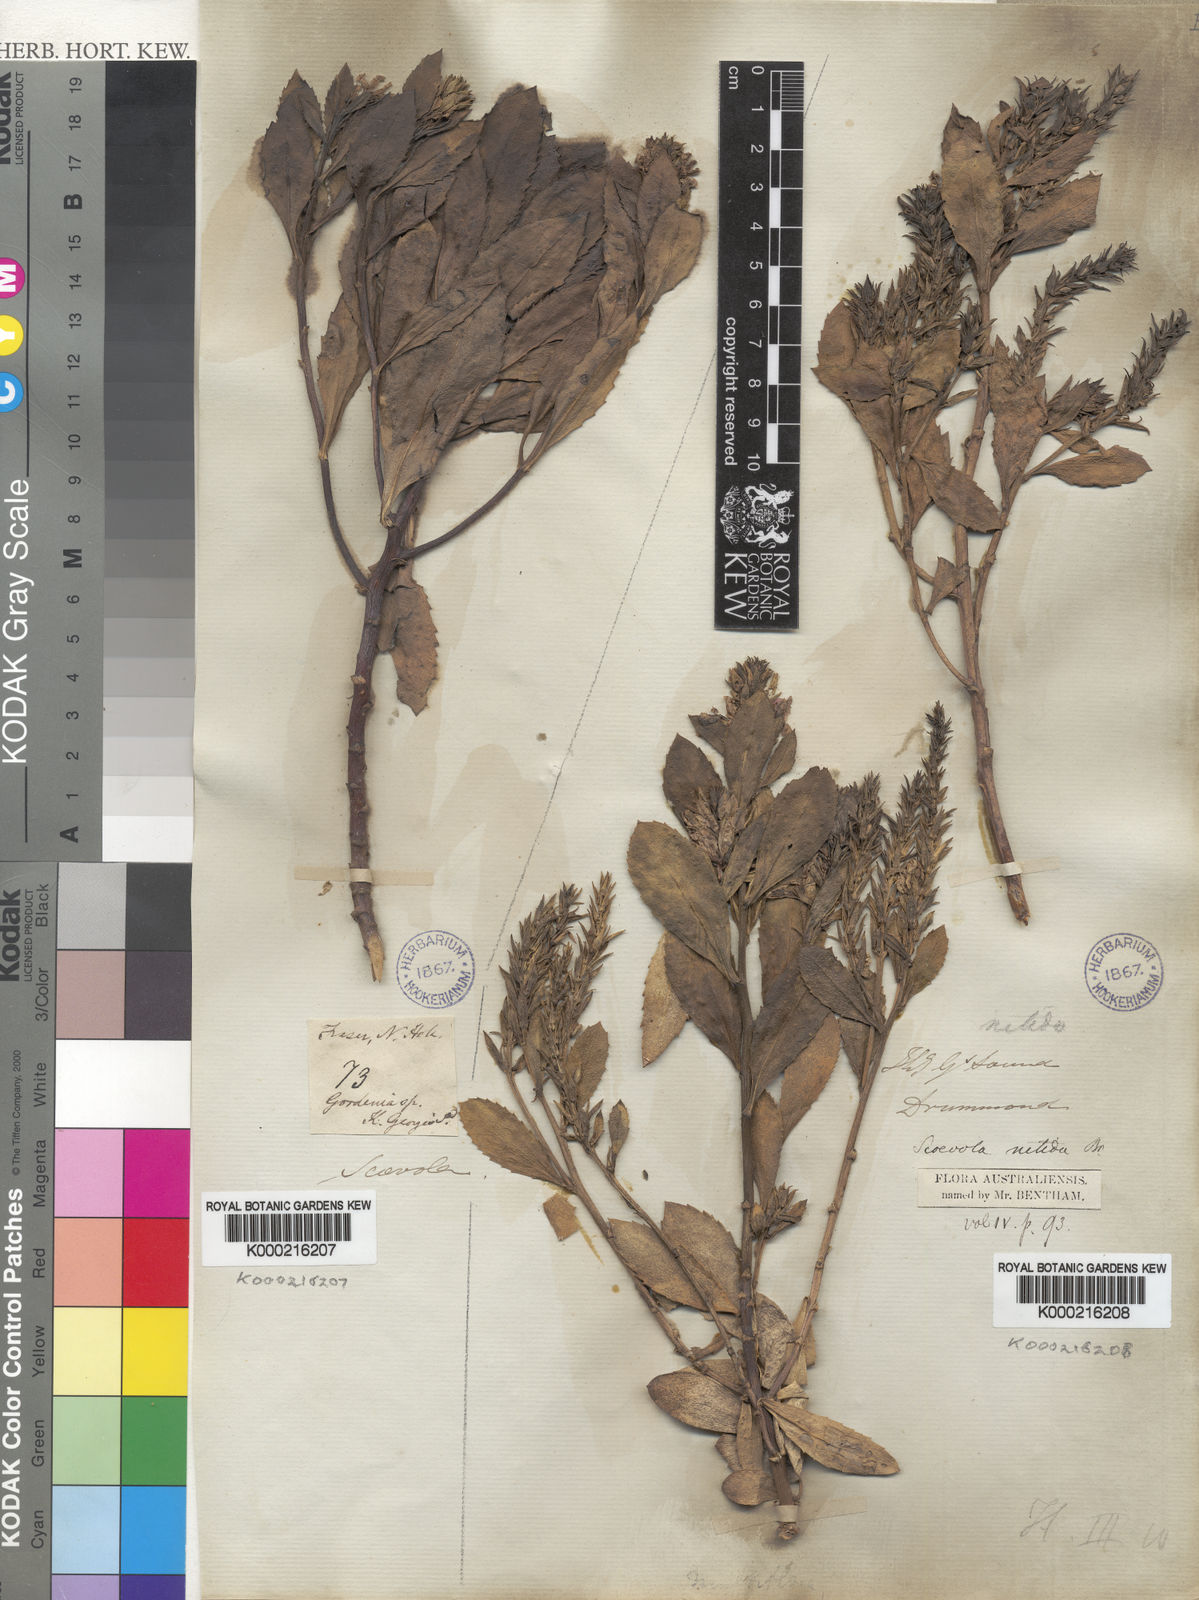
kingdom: Plantae
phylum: Tracheophyta
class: Magnoliopsida
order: Asterales
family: Goodeniaceae
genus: Goodenia
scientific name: Goodenia
